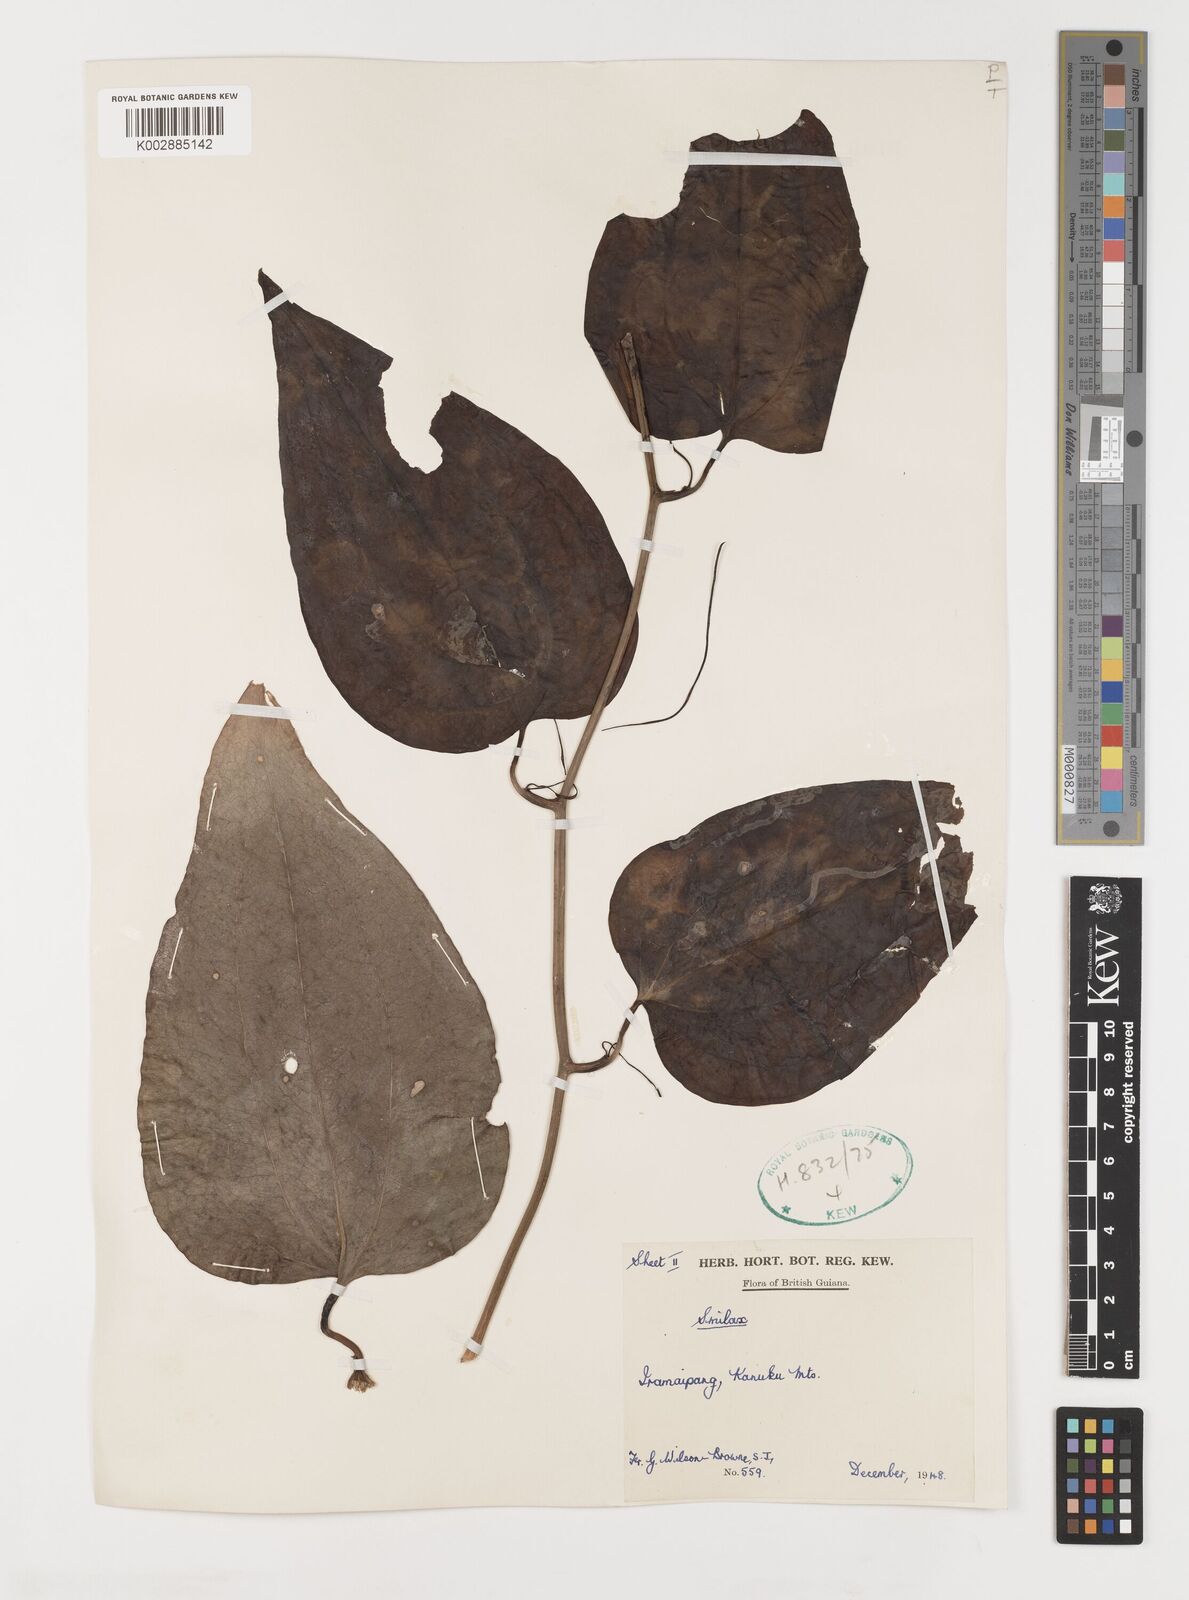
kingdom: Plantae
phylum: Tracheophyta
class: Liliopsida
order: Liliales
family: Smilacaceae
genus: Smilax
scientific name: Smilax
